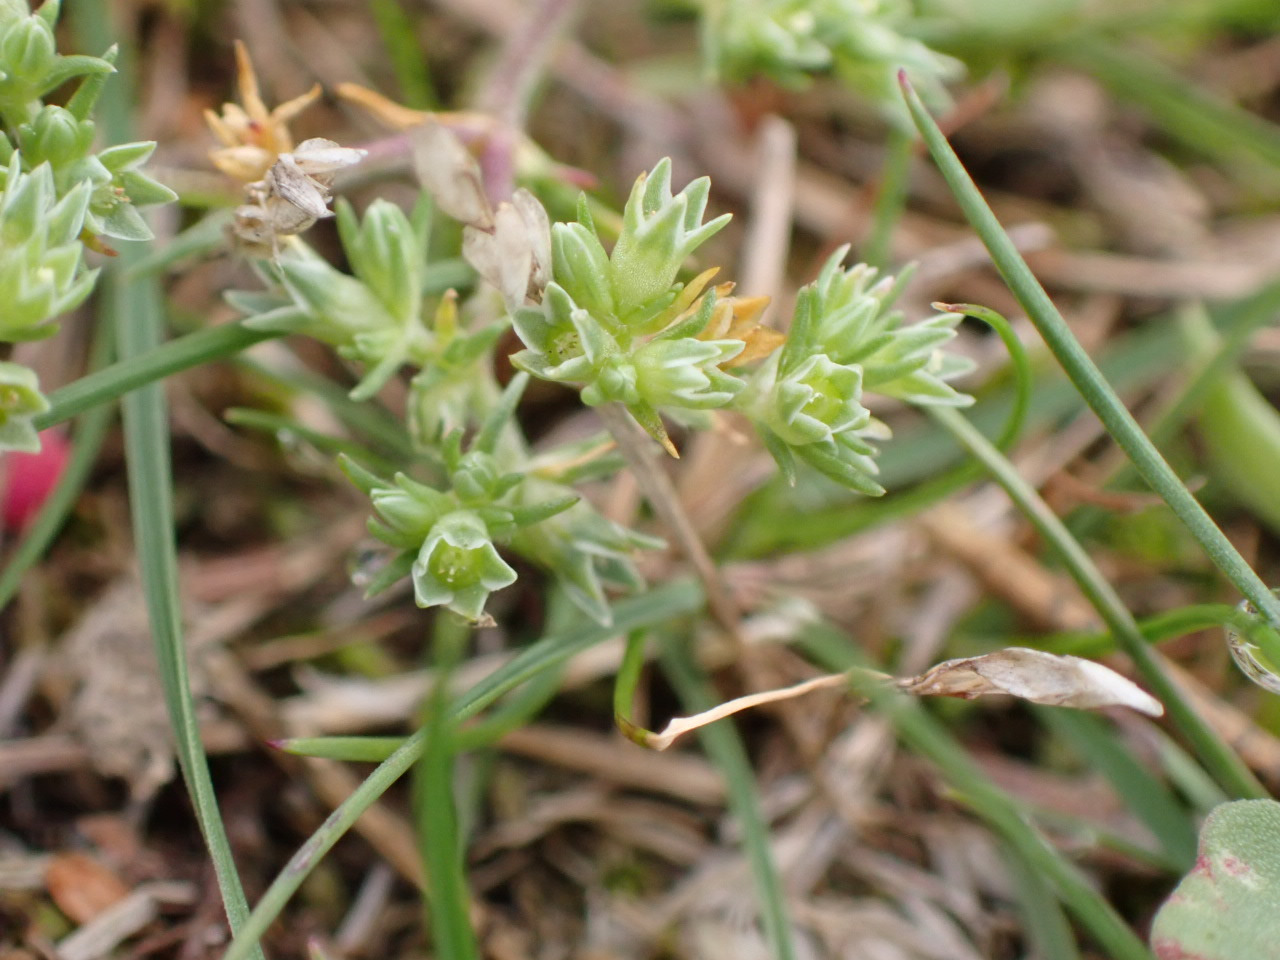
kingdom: Plantae
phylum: Tracheophyta
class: Magnoliopsida
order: Caryophyllales
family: Caryophyllaceae
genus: Scleranthus
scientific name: Scleranthus annuus
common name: Enårig knavel
